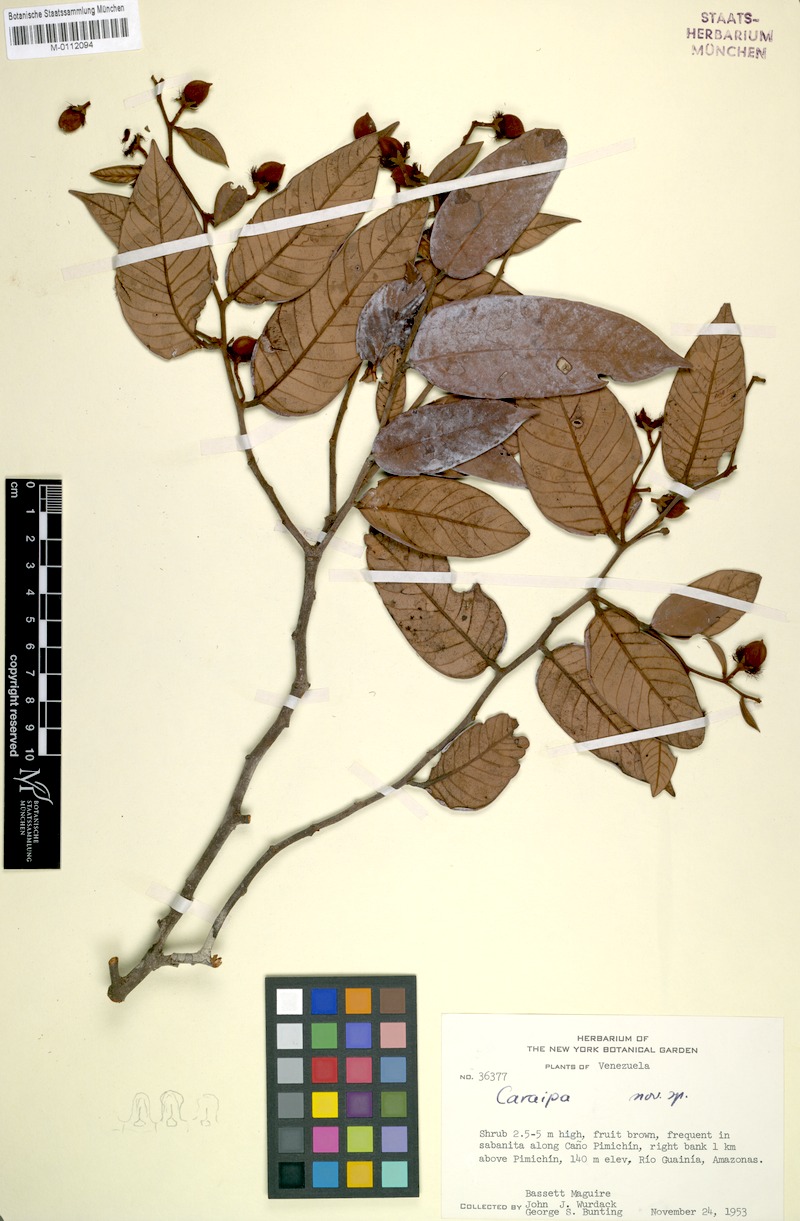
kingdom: Plantae
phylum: Tracheophyta
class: Magnoliopsida
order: Malpighiales
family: Calophyllaceae
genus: Caraipa
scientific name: Caraipa
